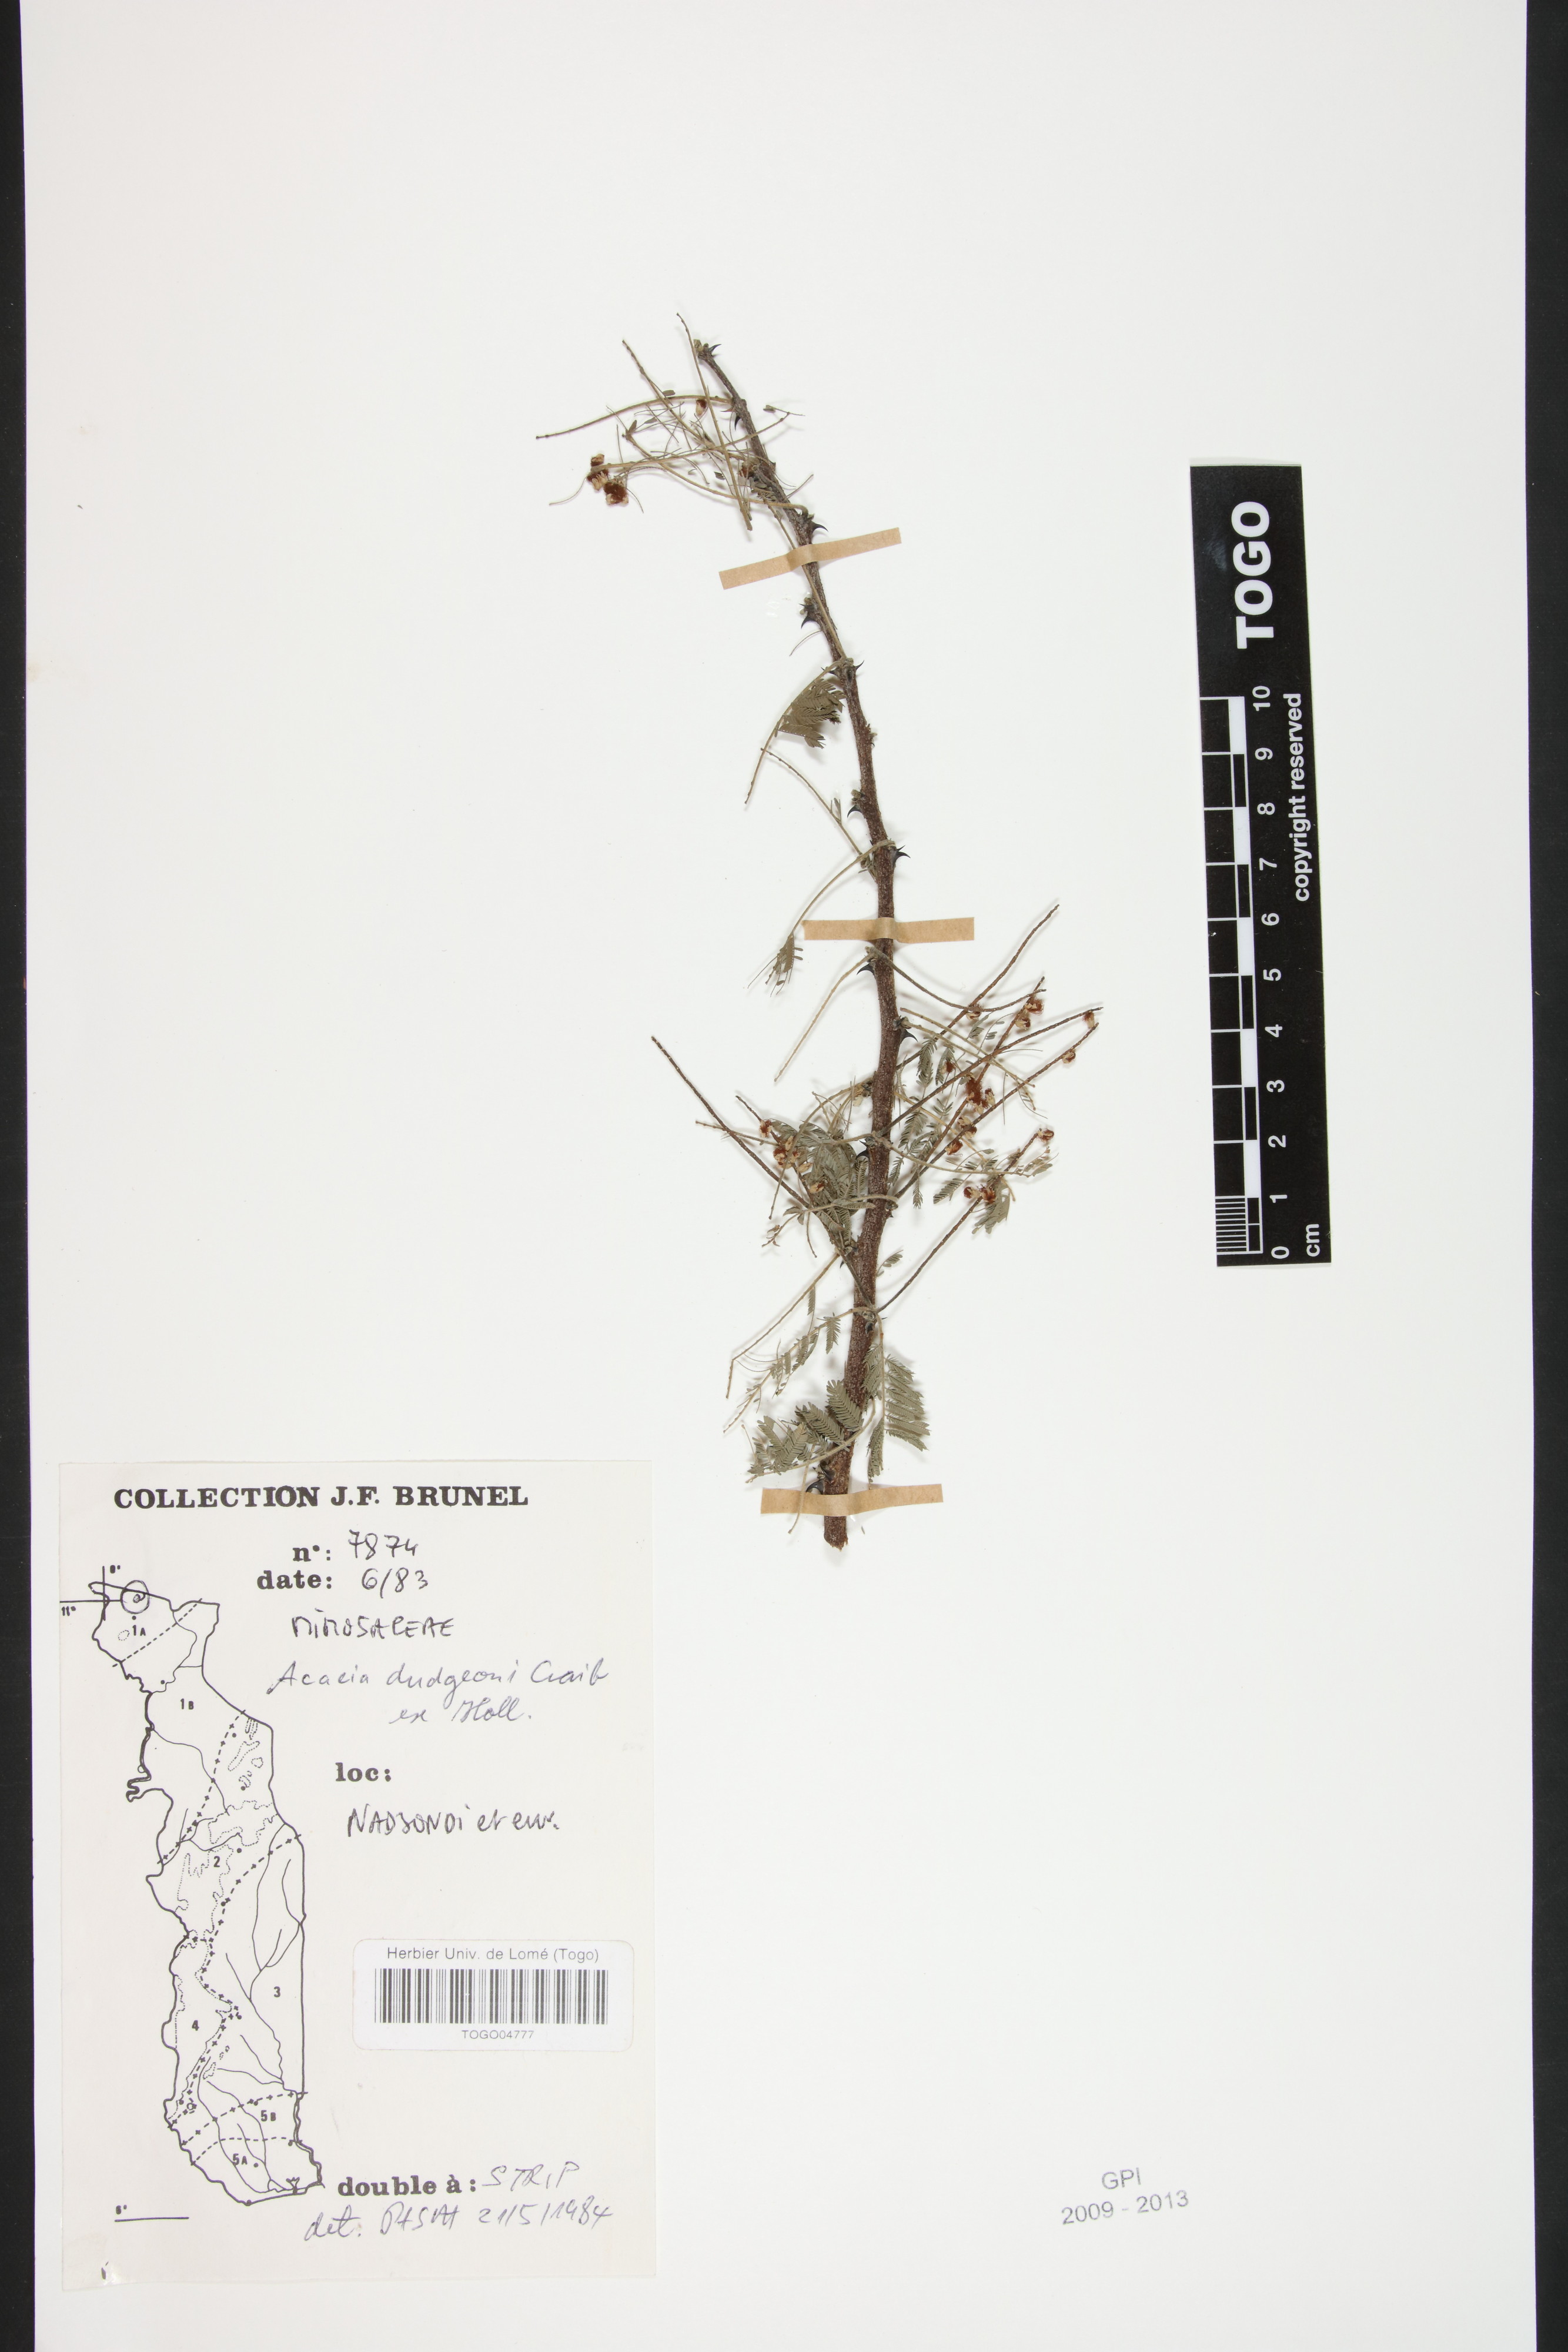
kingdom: Plantae
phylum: Tracheophyta
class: Magnoliopsida
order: Fabales
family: Fabaceae
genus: Senegalia
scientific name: Senegalia dudgeonii
